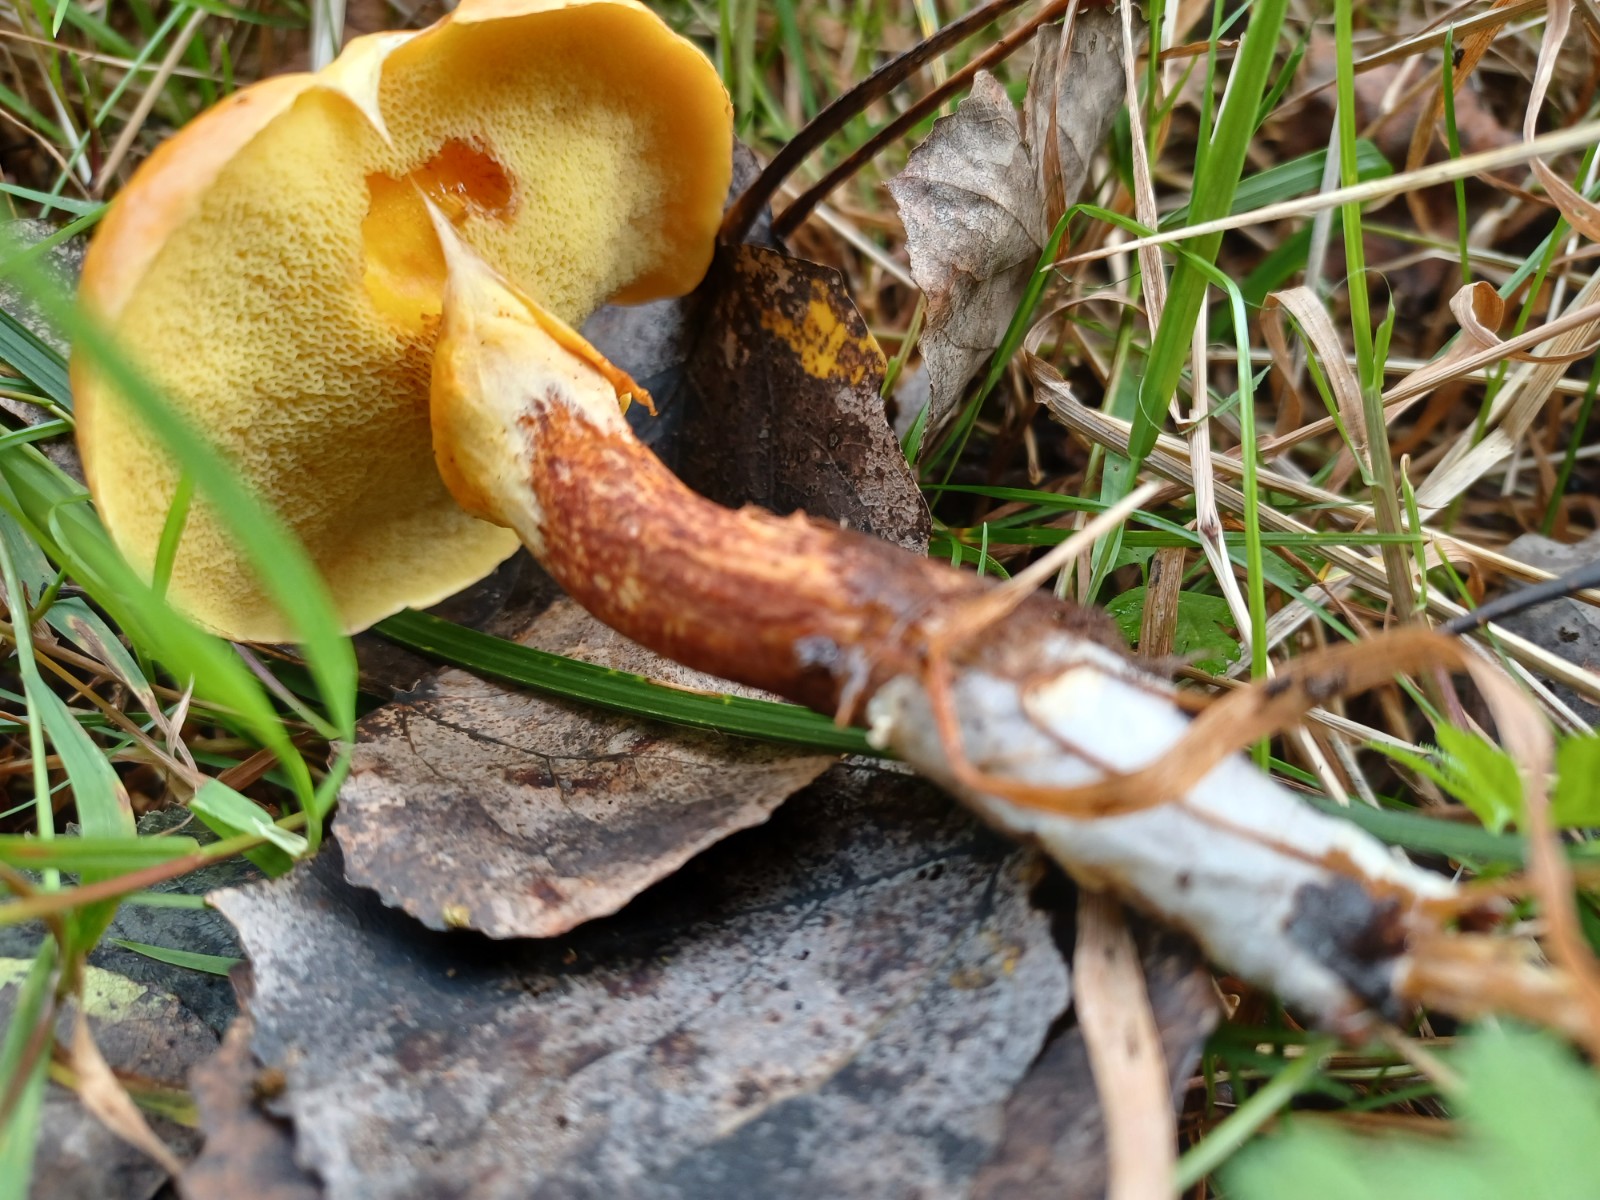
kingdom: Fungi
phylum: Basidiomycota
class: Agaricomycetes
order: Boletales
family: Suillaceae
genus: Suillus
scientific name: Suillus grevillei
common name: lærke-slimrørhat
